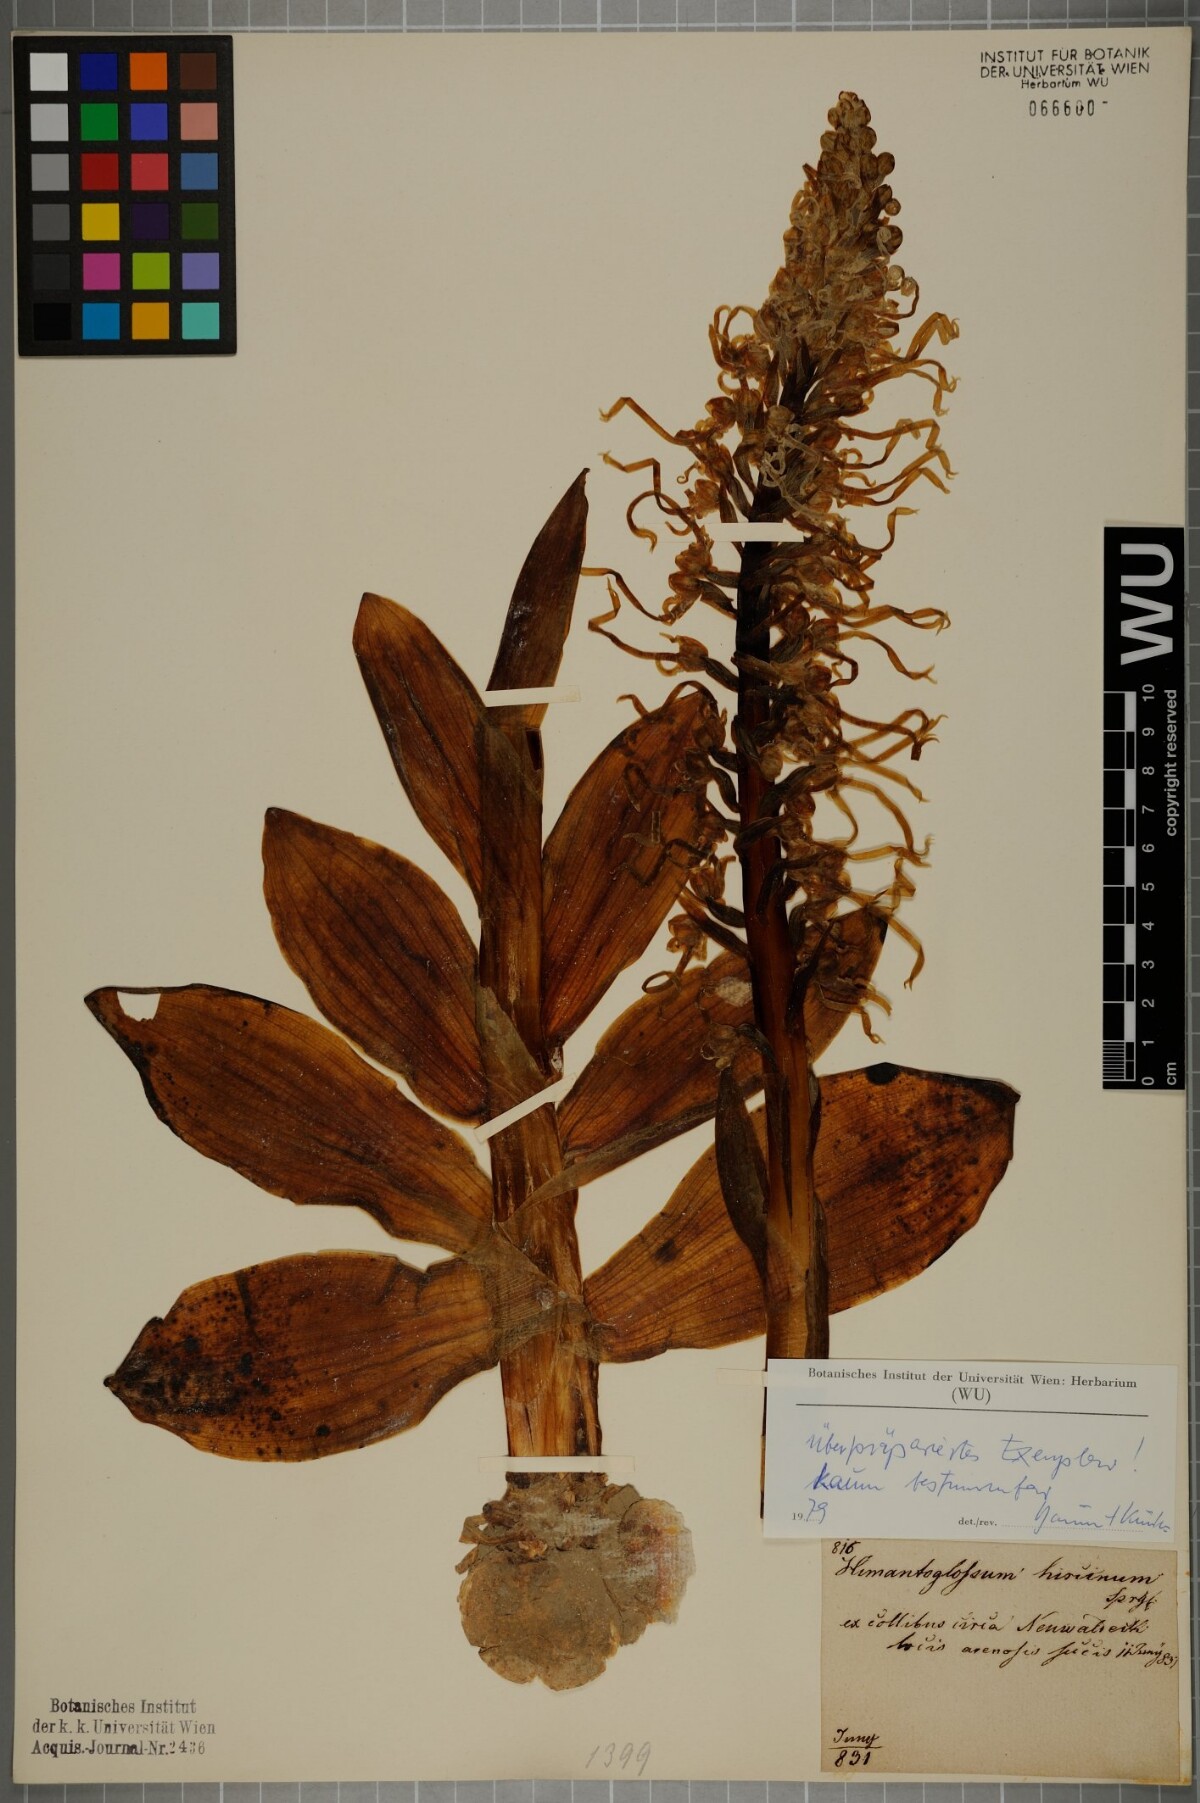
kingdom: Plantae
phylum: Tracheophyta
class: Liliopsida
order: Asparagales
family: Orchidaceae
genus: Himantoglossum
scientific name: Himantoglossum adriaticum
